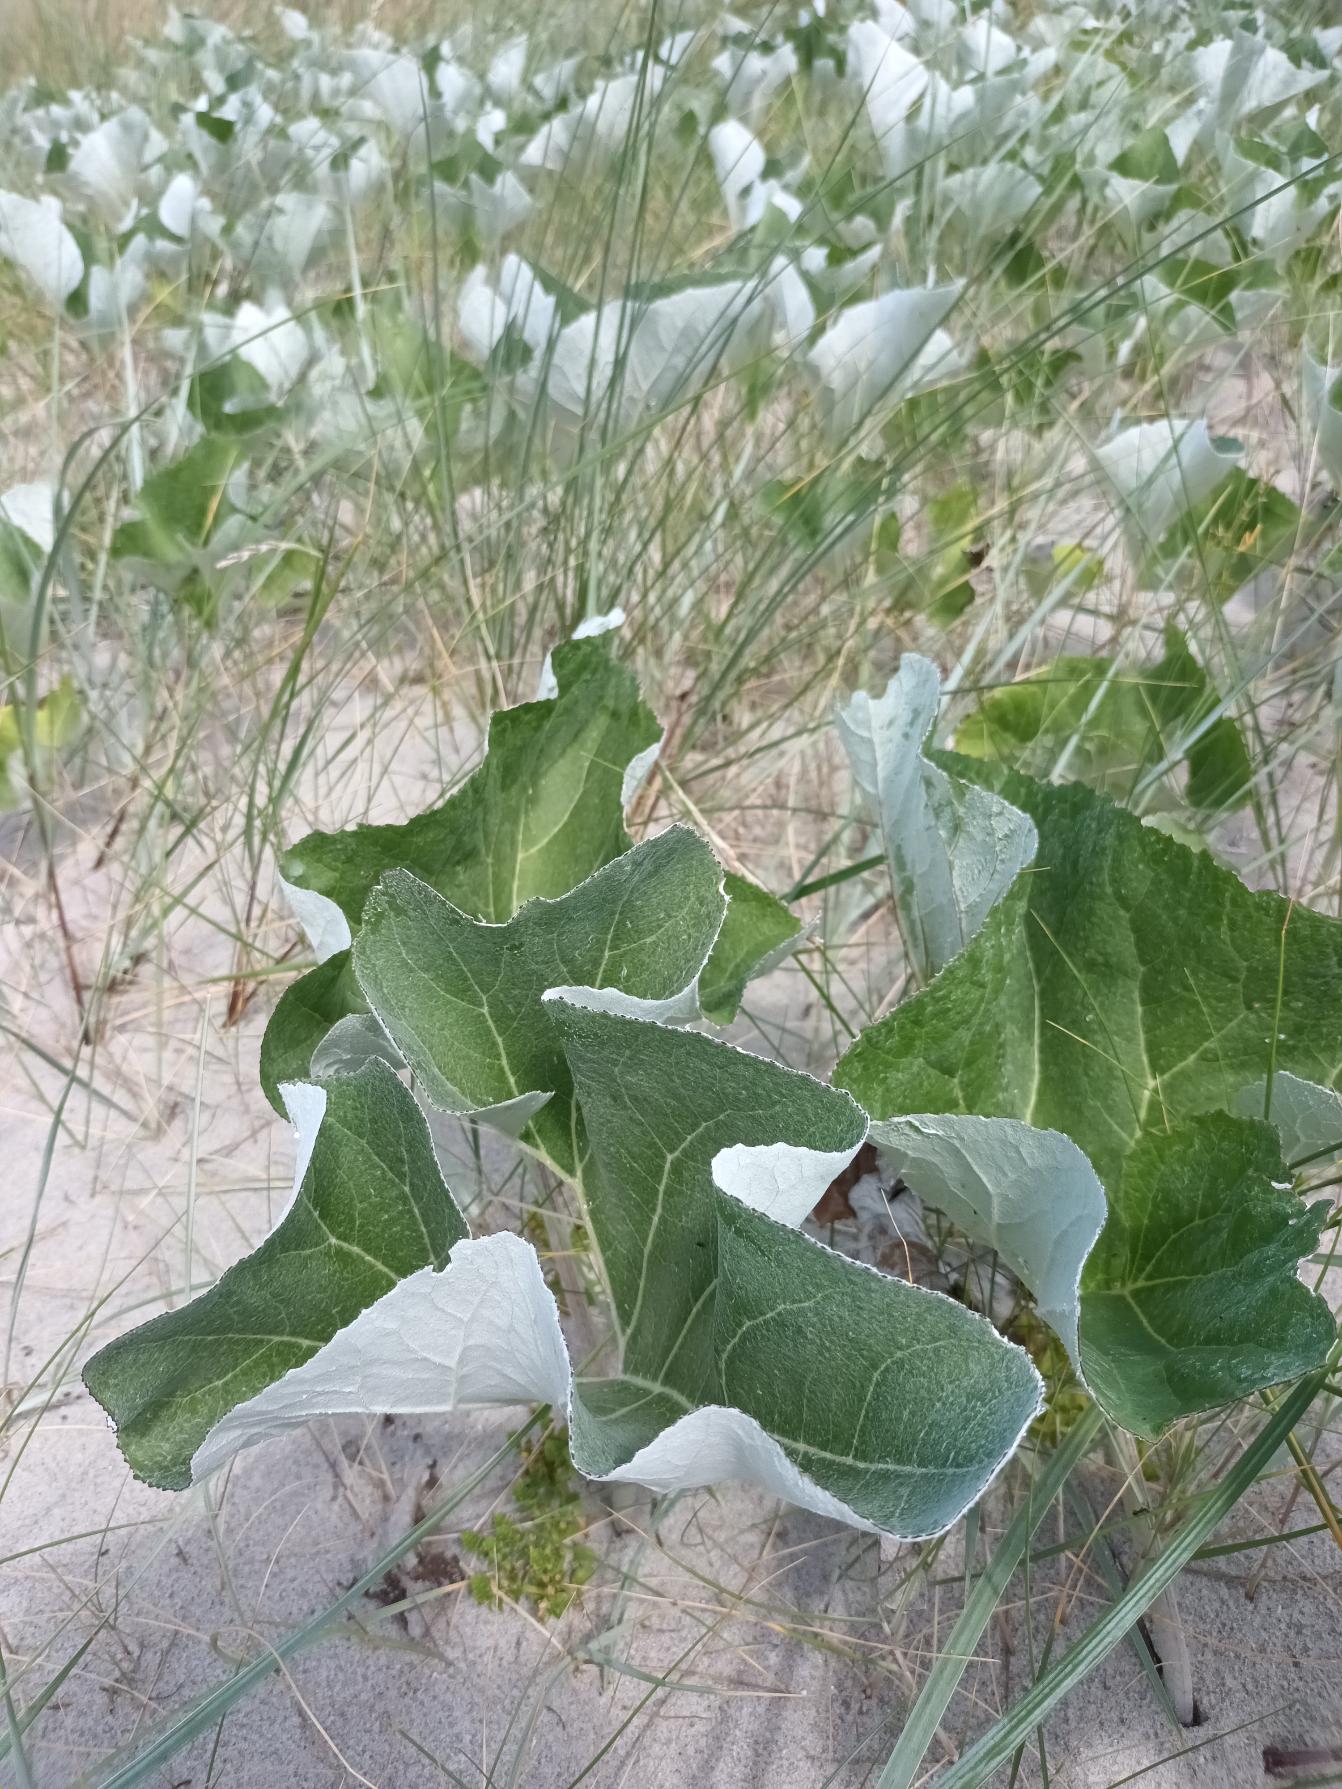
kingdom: Plantae
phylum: Tracheophyta
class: Magnoliopsida
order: Asterales
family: Asteraceae
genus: Petasites
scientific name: Petasites spurius
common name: Filtet hestehov
